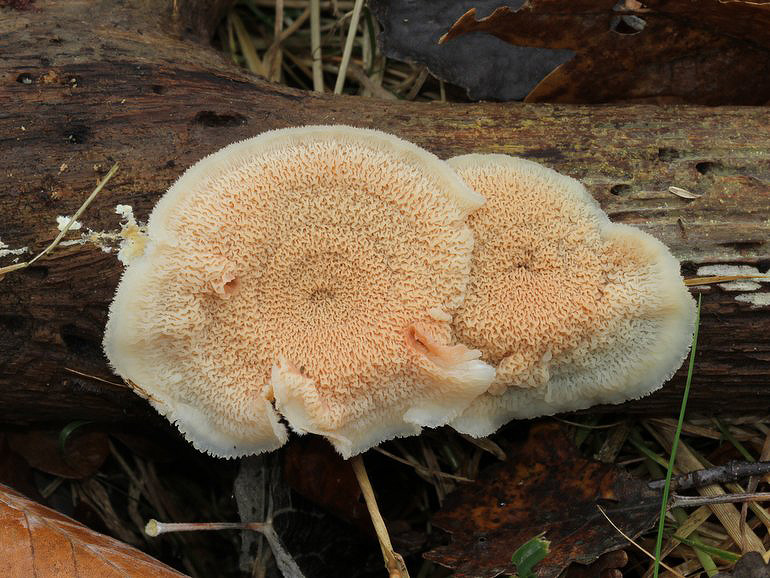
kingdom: Fungi
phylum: Basidiomycota
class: Agaricomycetes
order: Polyporales
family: Meruliaceae
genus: Phlebia
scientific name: Phlebia tremellosa
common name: bævrende åresvamp
